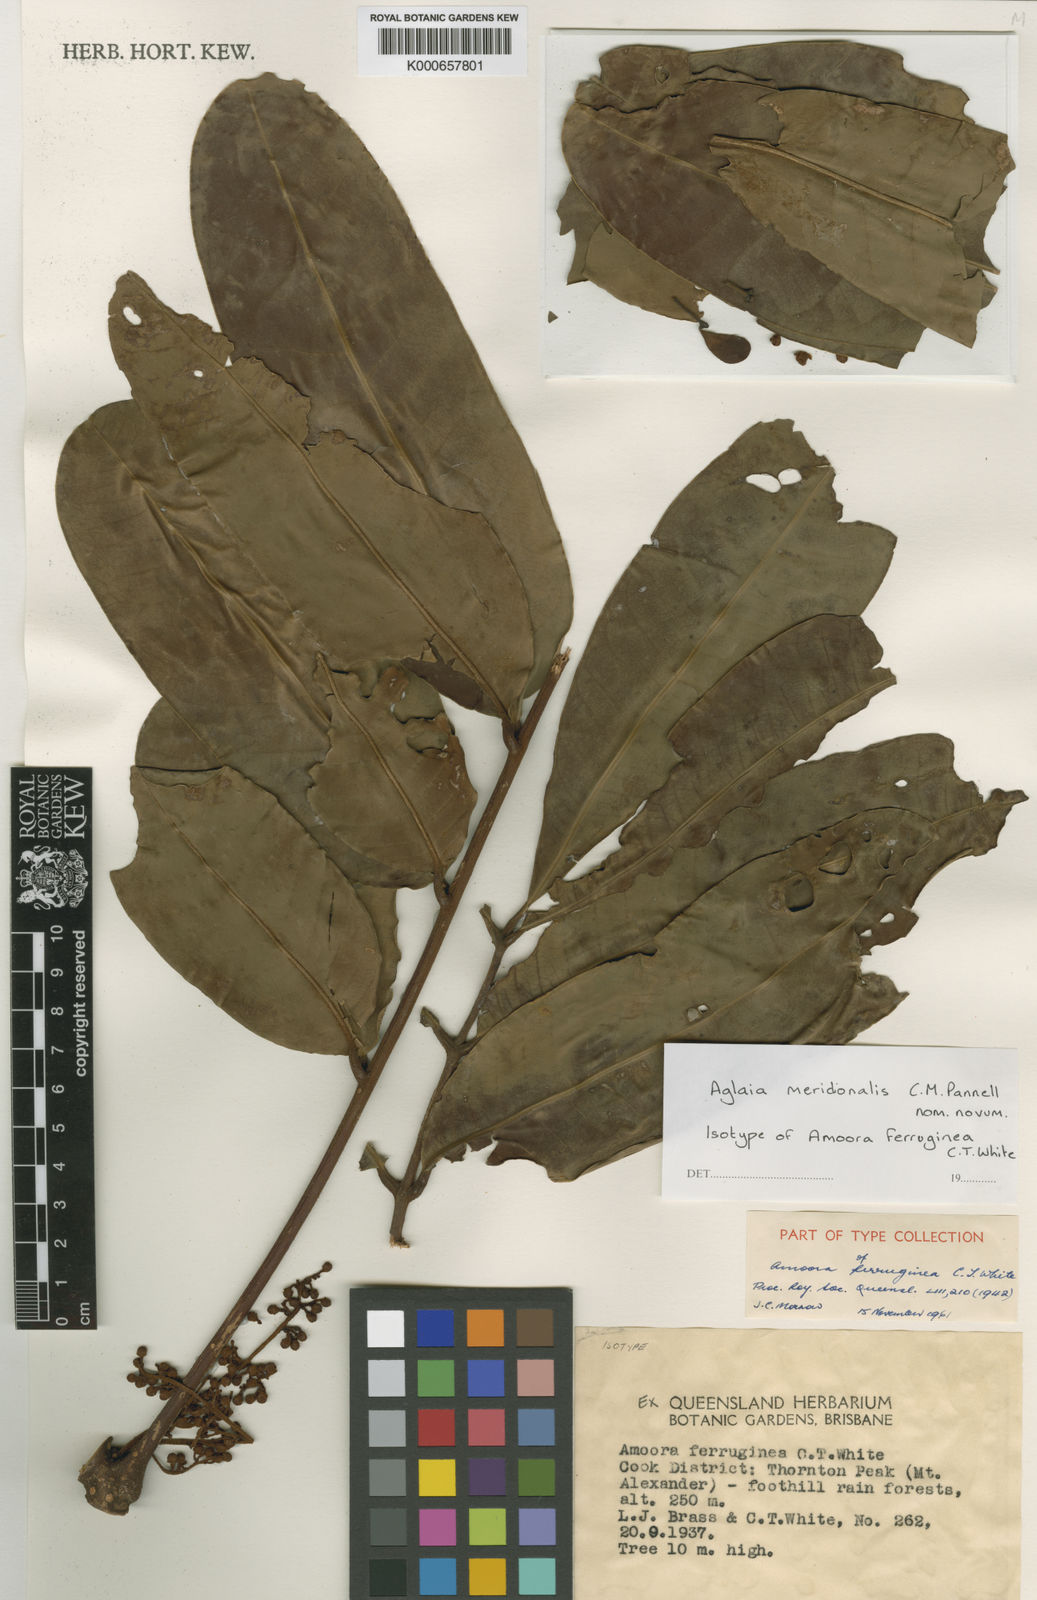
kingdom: Plantae
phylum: Tracheophyta
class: Magnoliopsida
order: Sapindales
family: Meliaceae
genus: Aglaia
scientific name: Aglaia meridionalis
